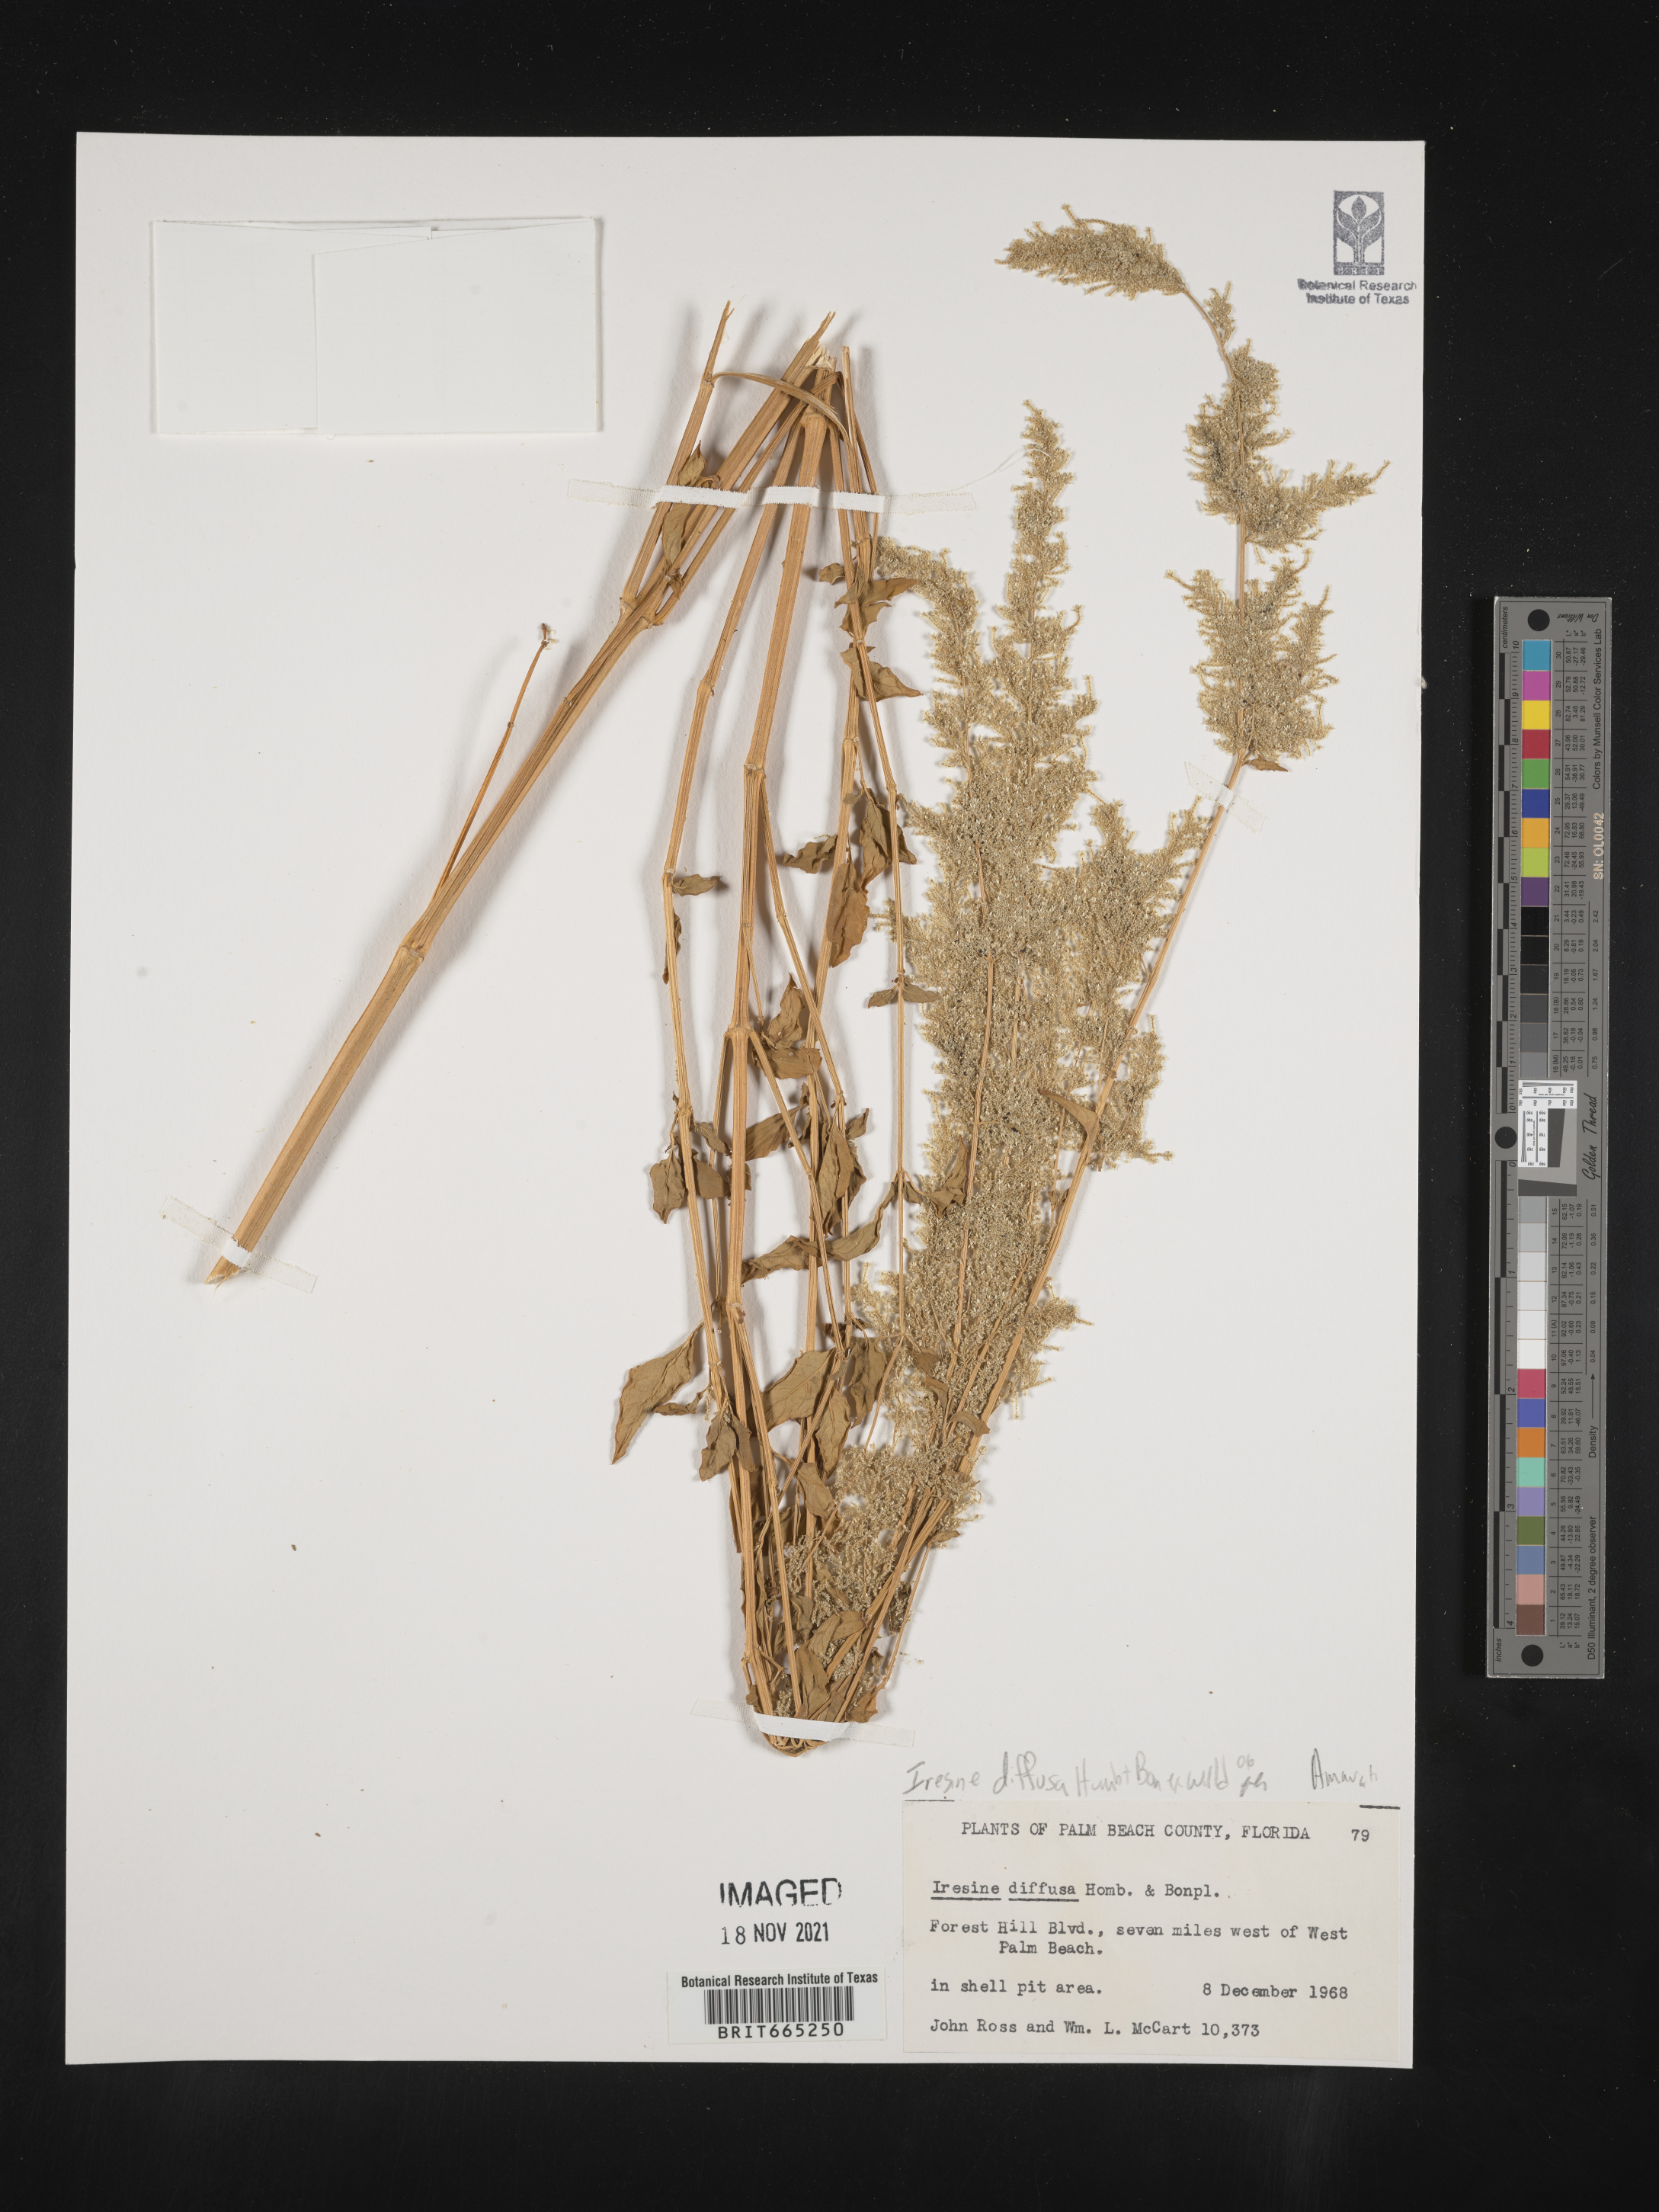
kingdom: Plantae
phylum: Tracheophyta
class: Magnoliopsida
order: Caryophyllales
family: Amaranthaceae
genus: Iresine
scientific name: Iresine
